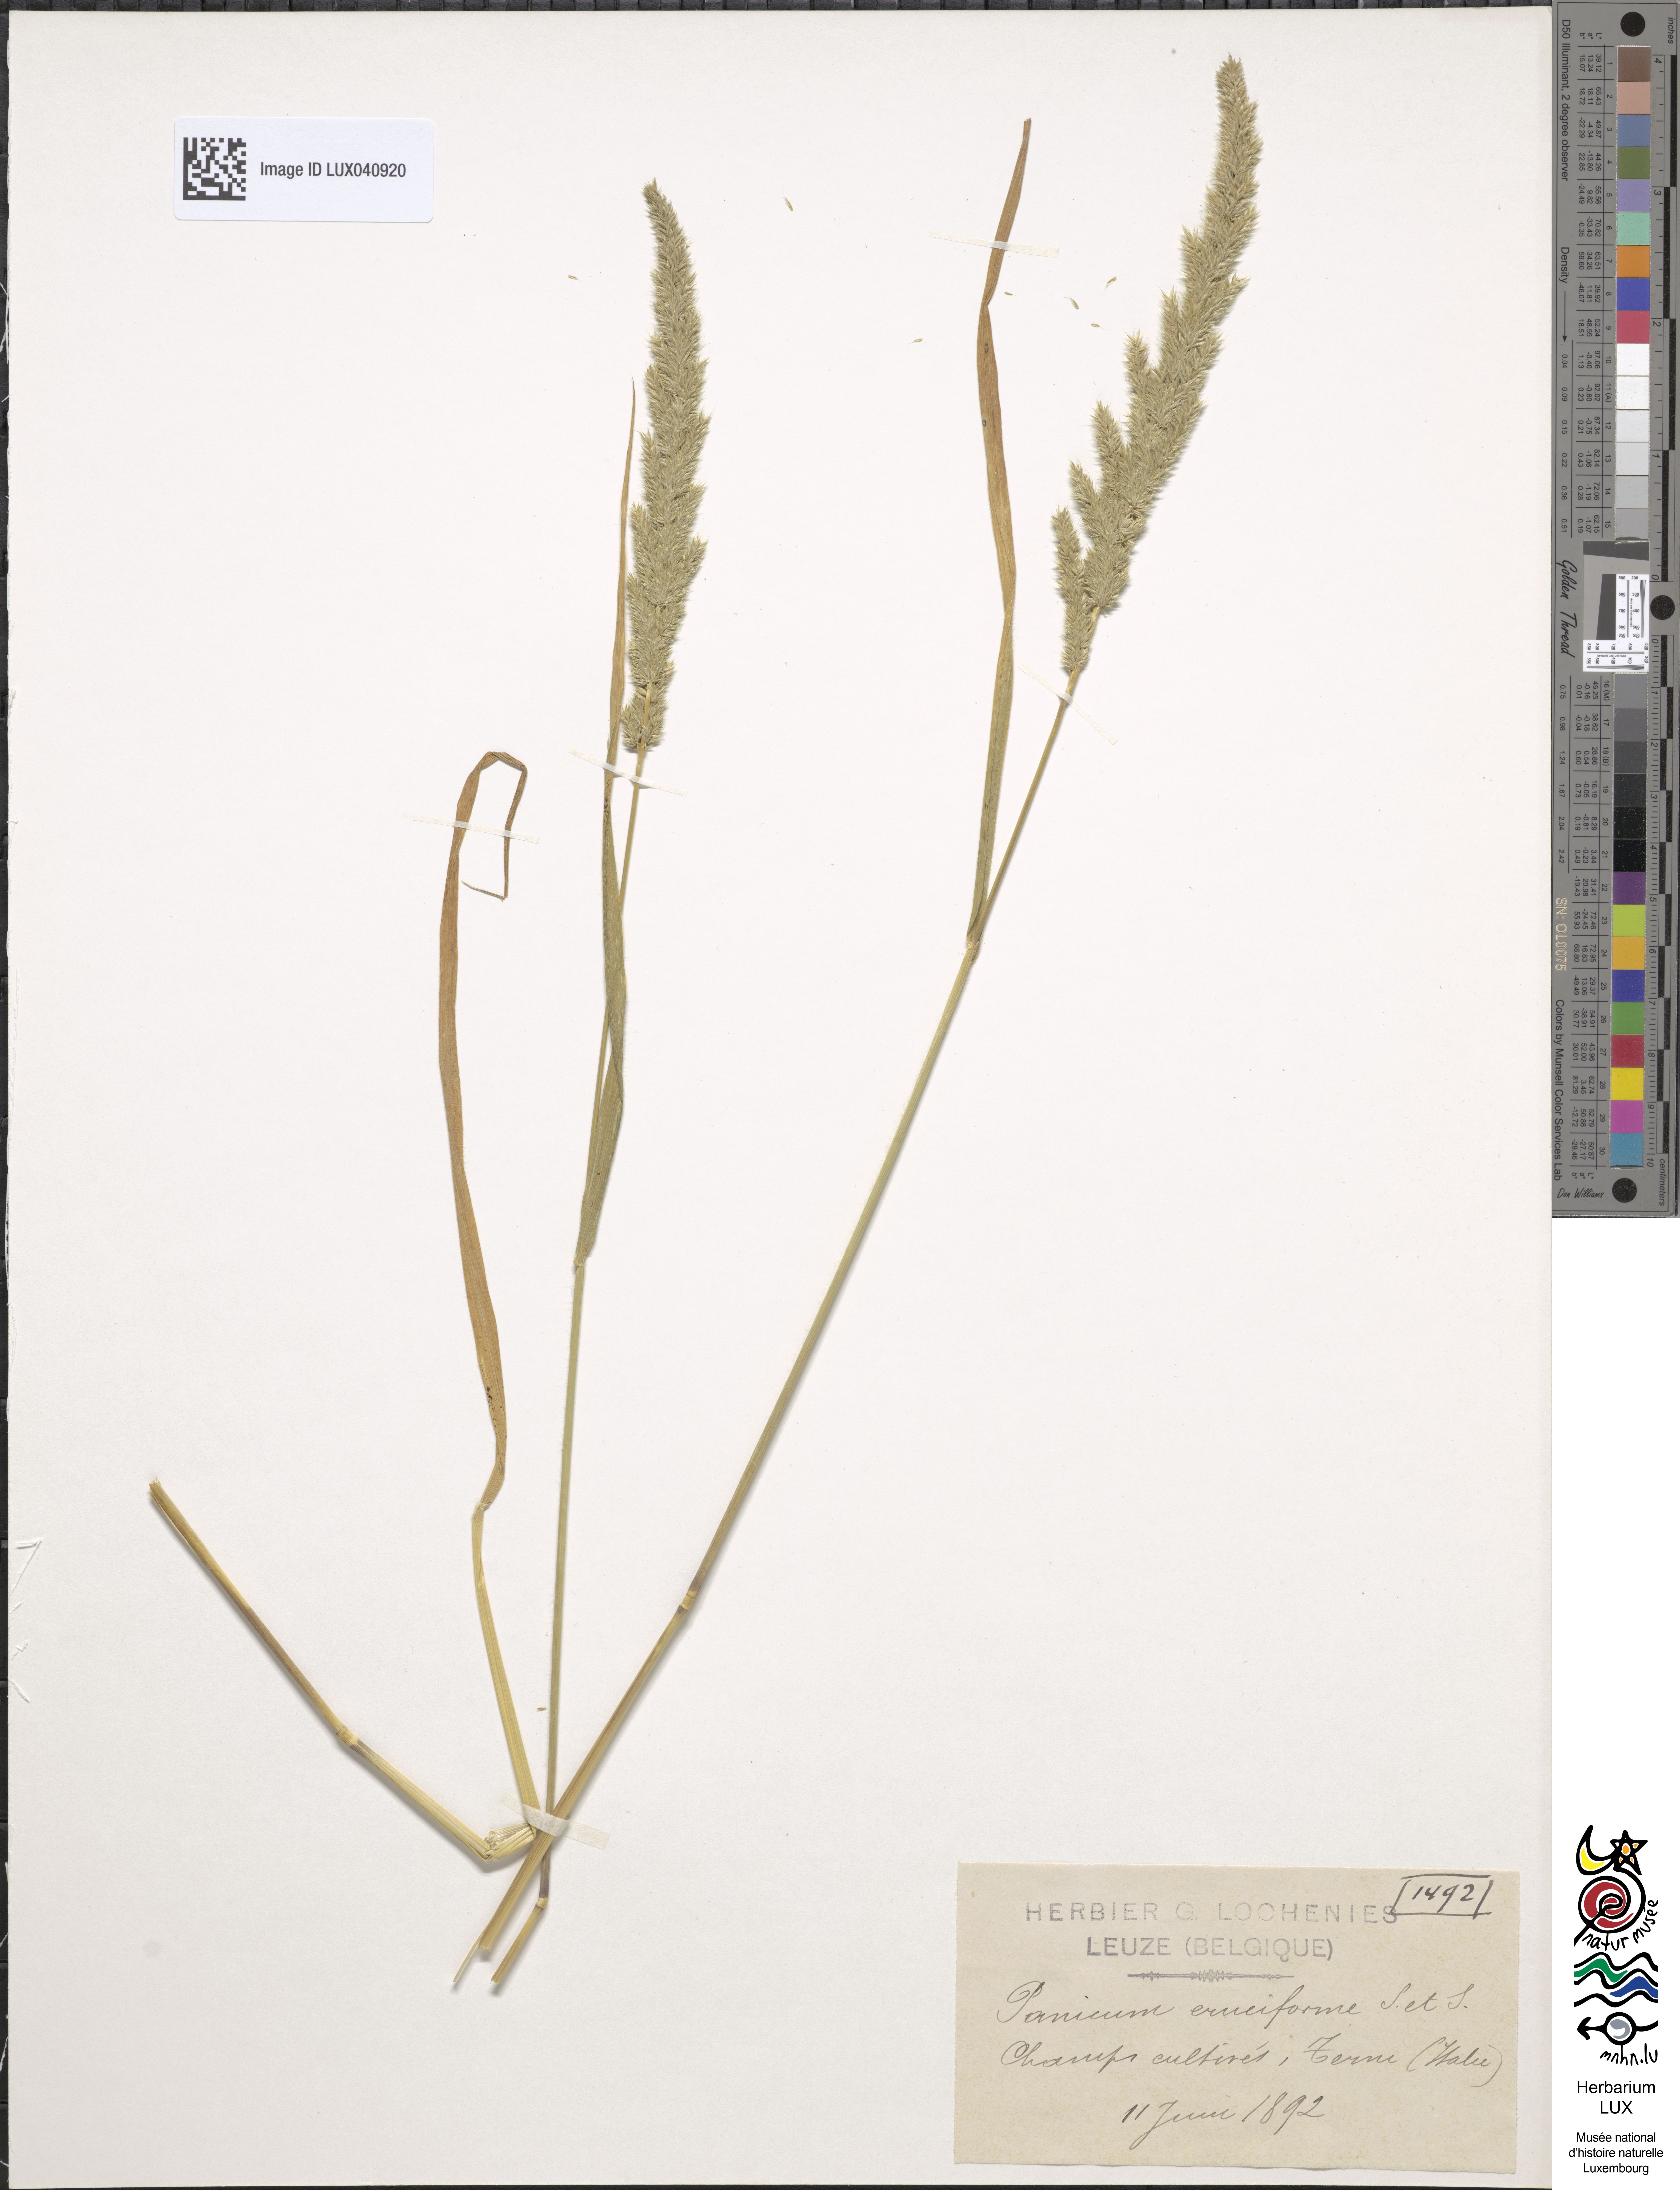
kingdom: Plantae
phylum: Tracheophyta
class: Liliopsida
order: Poales
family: Poaceae
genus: Moorochloa
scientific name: Moorochloa eruciformis
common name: Sweet signalgrass
